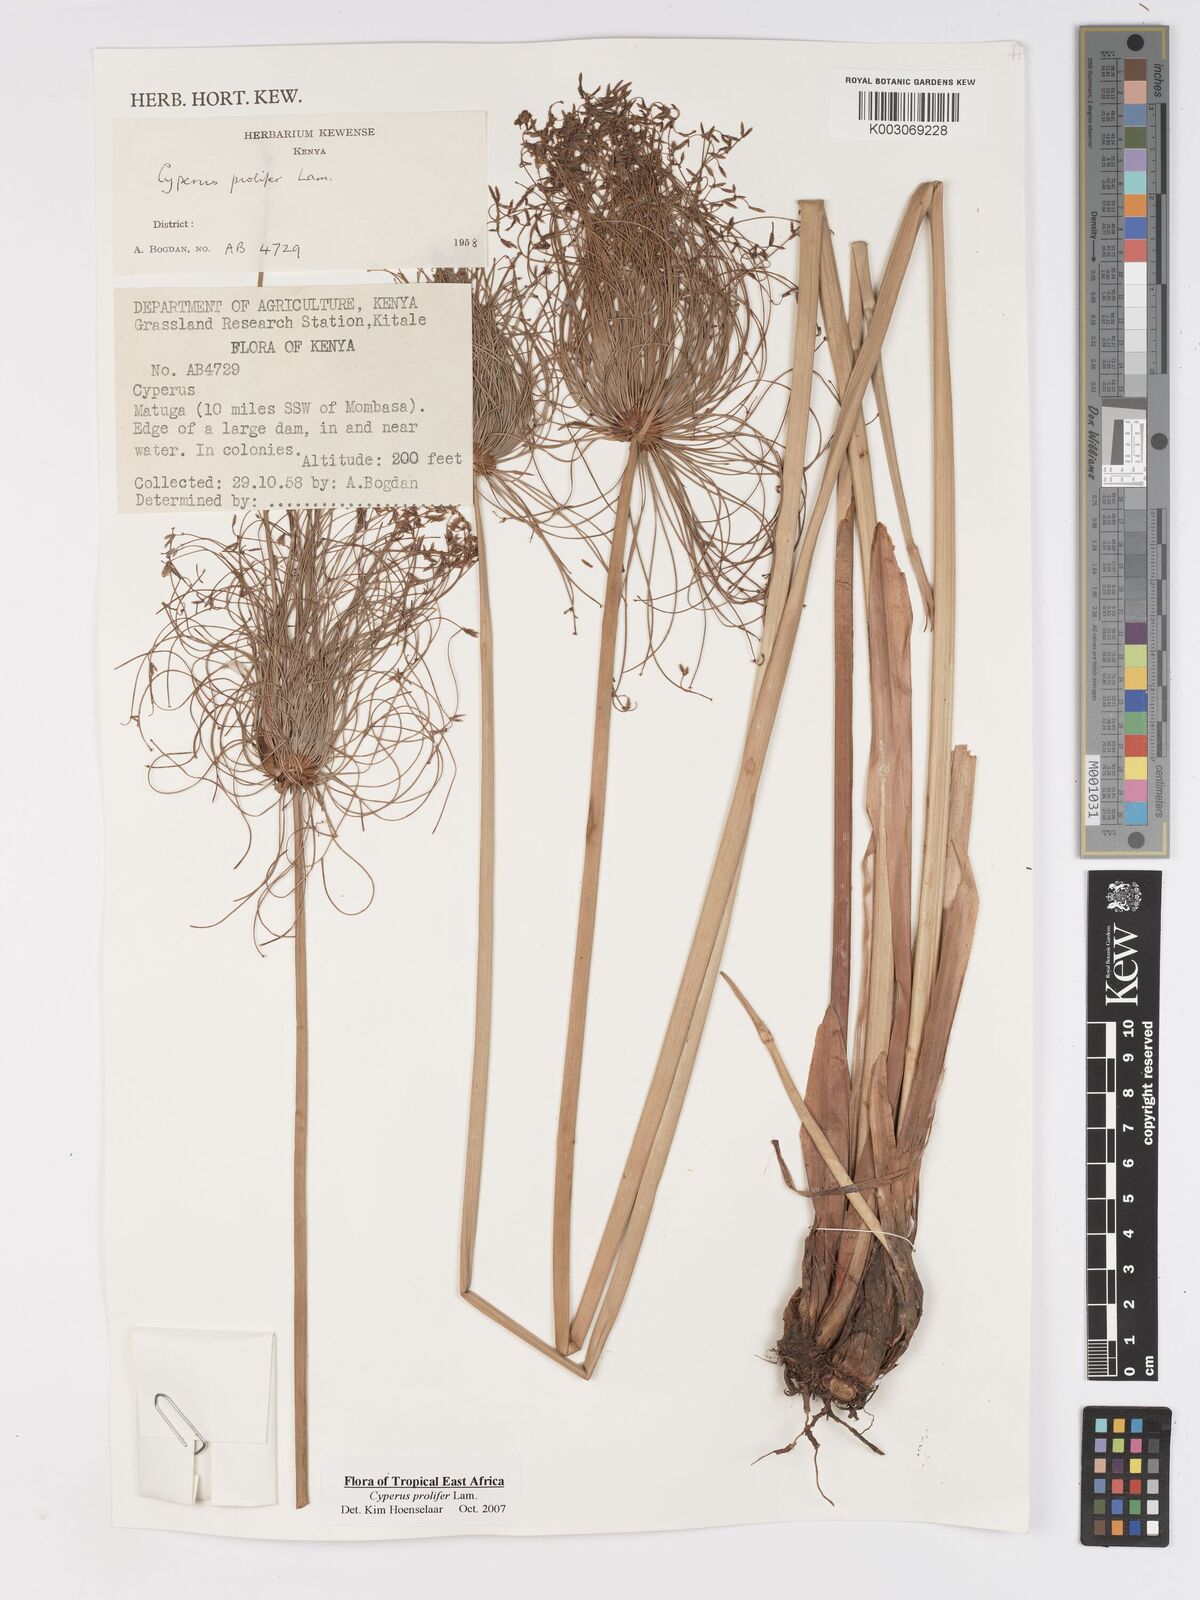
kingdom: Plantae
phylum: Tracheophyta
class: Liliopsida
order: Poales
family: Cyperaceae
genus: Cyperus
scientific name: Cyperus prolifer
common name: Miniature flatsedge
